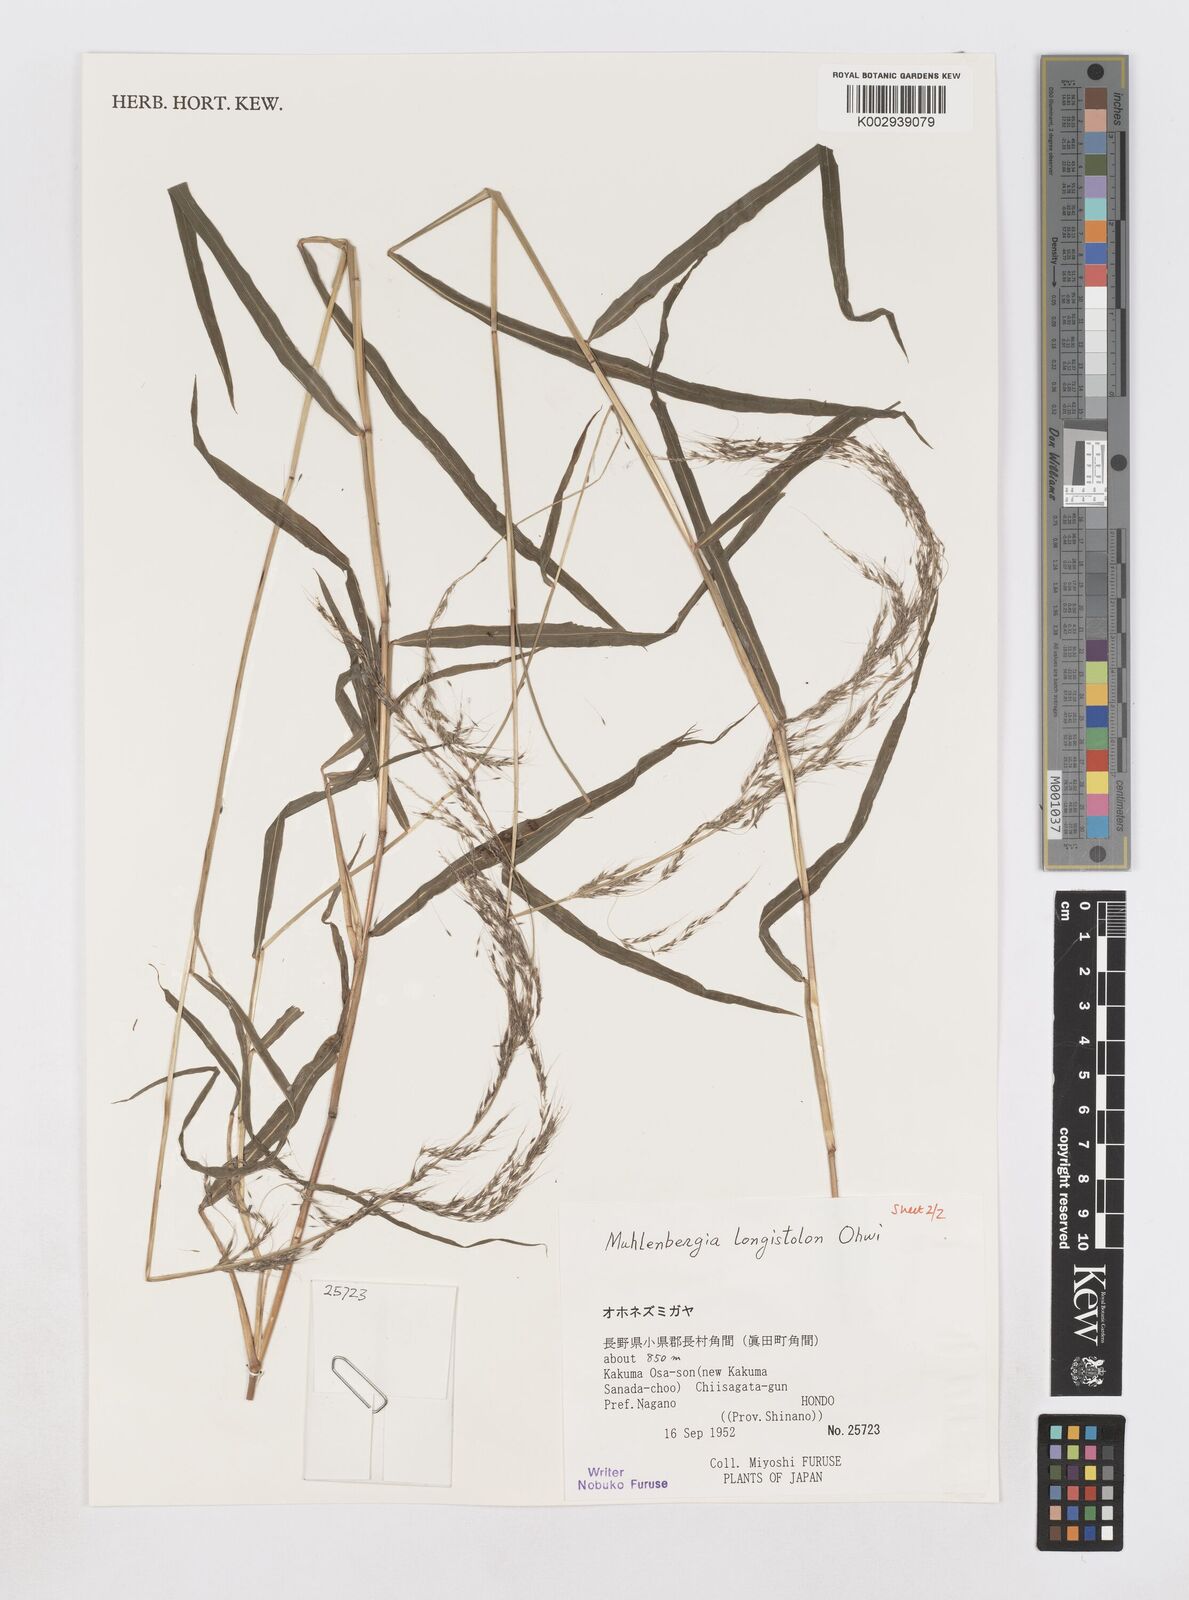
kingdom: Plantae
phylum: Tracheophyta
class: Liliopsida
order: Poales
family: Poaceae
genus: Muhlenbergia
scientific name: Muhlenbergia huegelii
